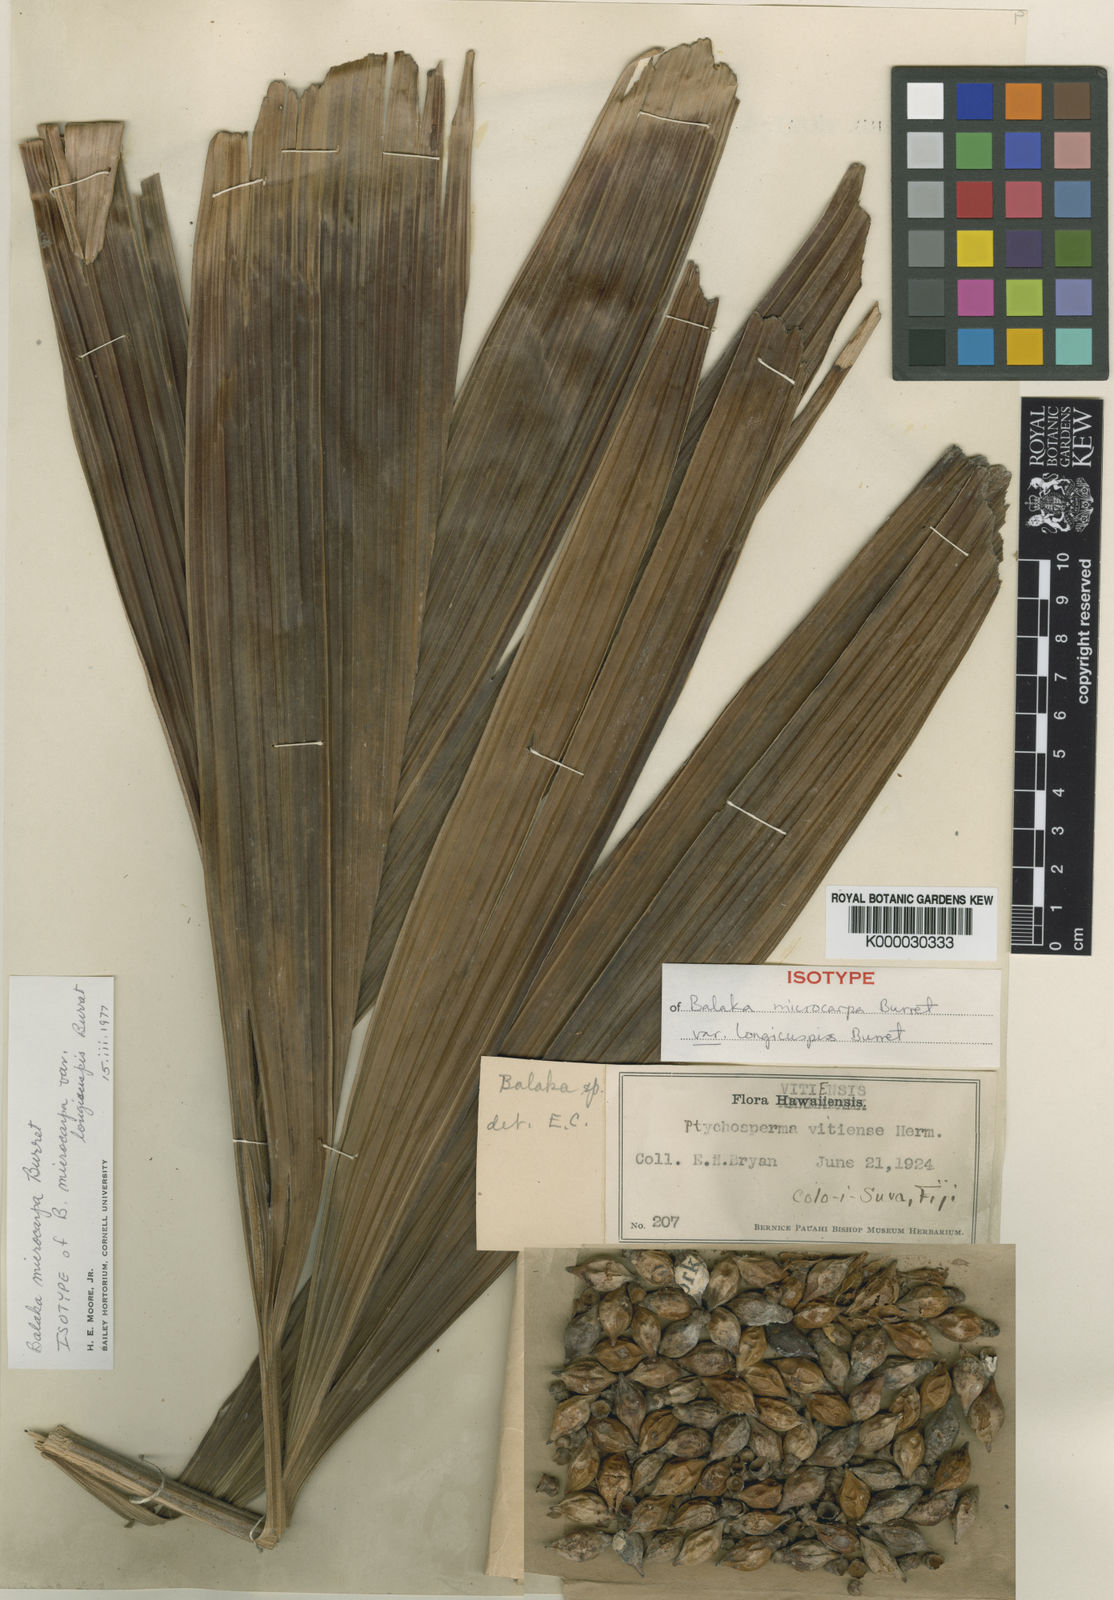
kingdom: Plantae
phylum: Tracheophyta
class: Liliopsida
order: Arecales
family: Arecaceae
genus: Balaka
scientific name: Balaka microcarpa
